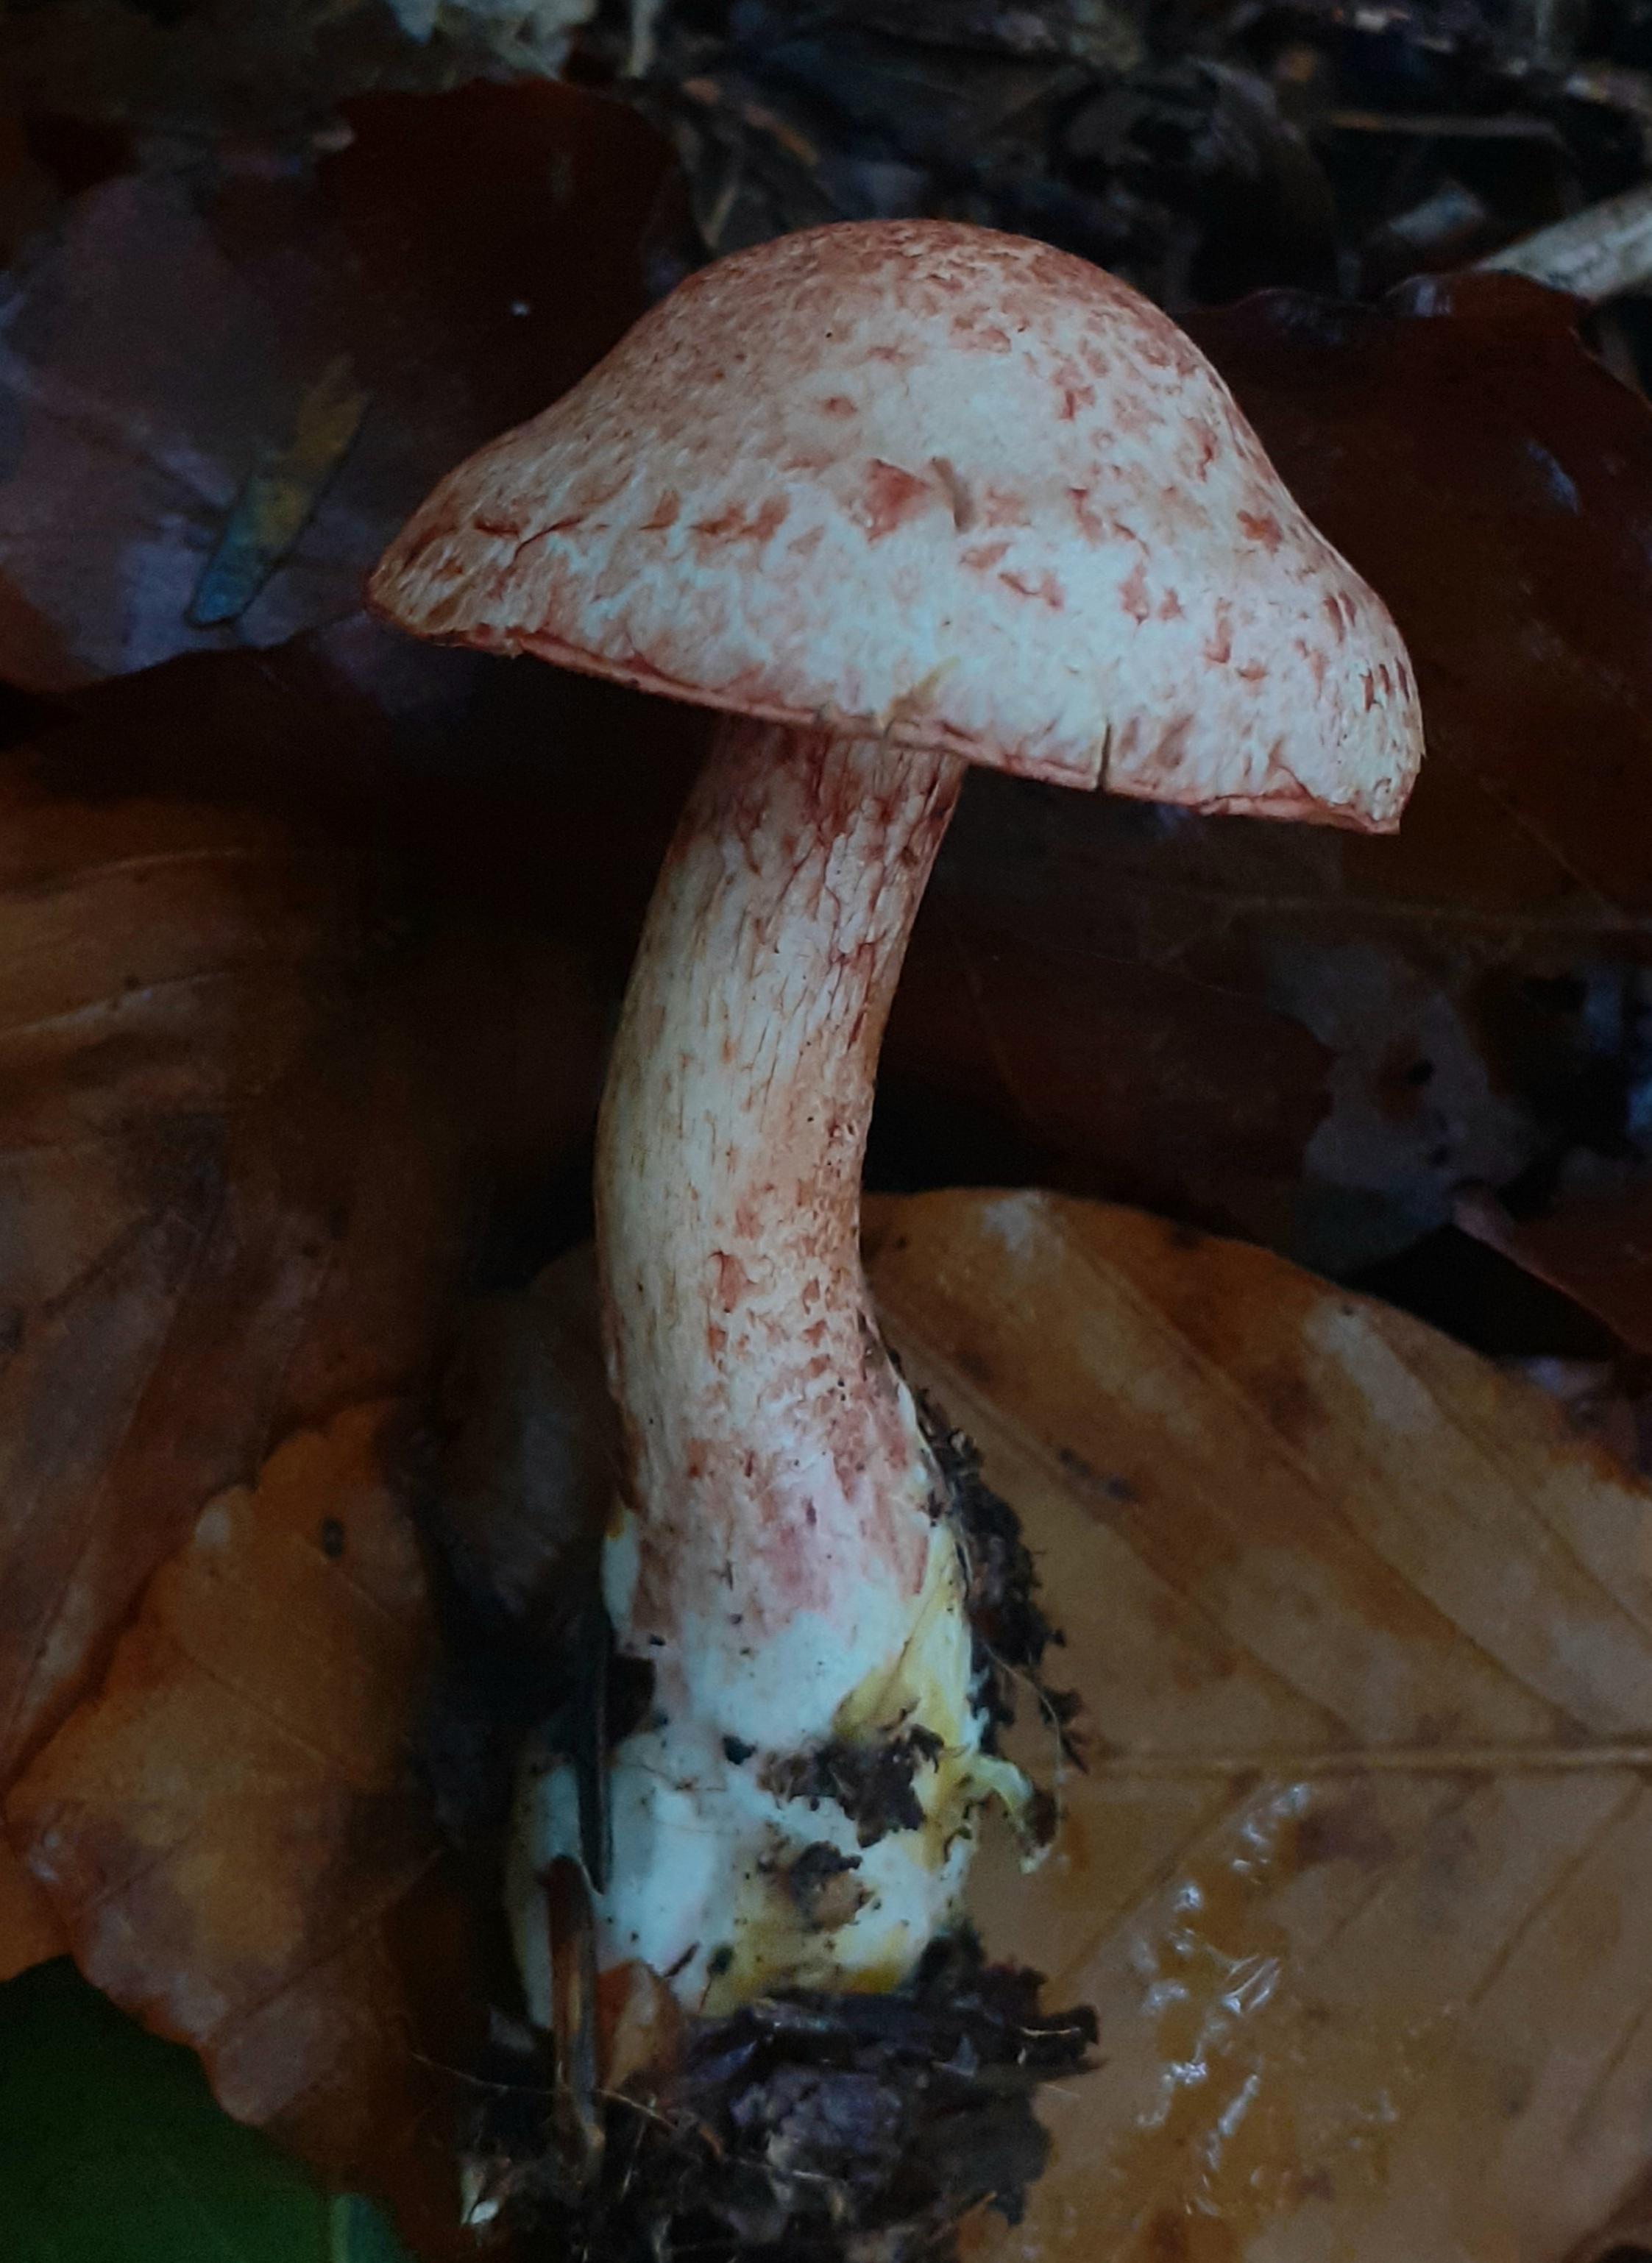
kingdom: Fungi
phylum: Basidiomycota
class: Agaricomycetes
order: Agaricales
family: Cortinariaceae
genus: Cortinarius
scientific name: Cortinarius bolaris
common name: cinnoberskællet slørhat
